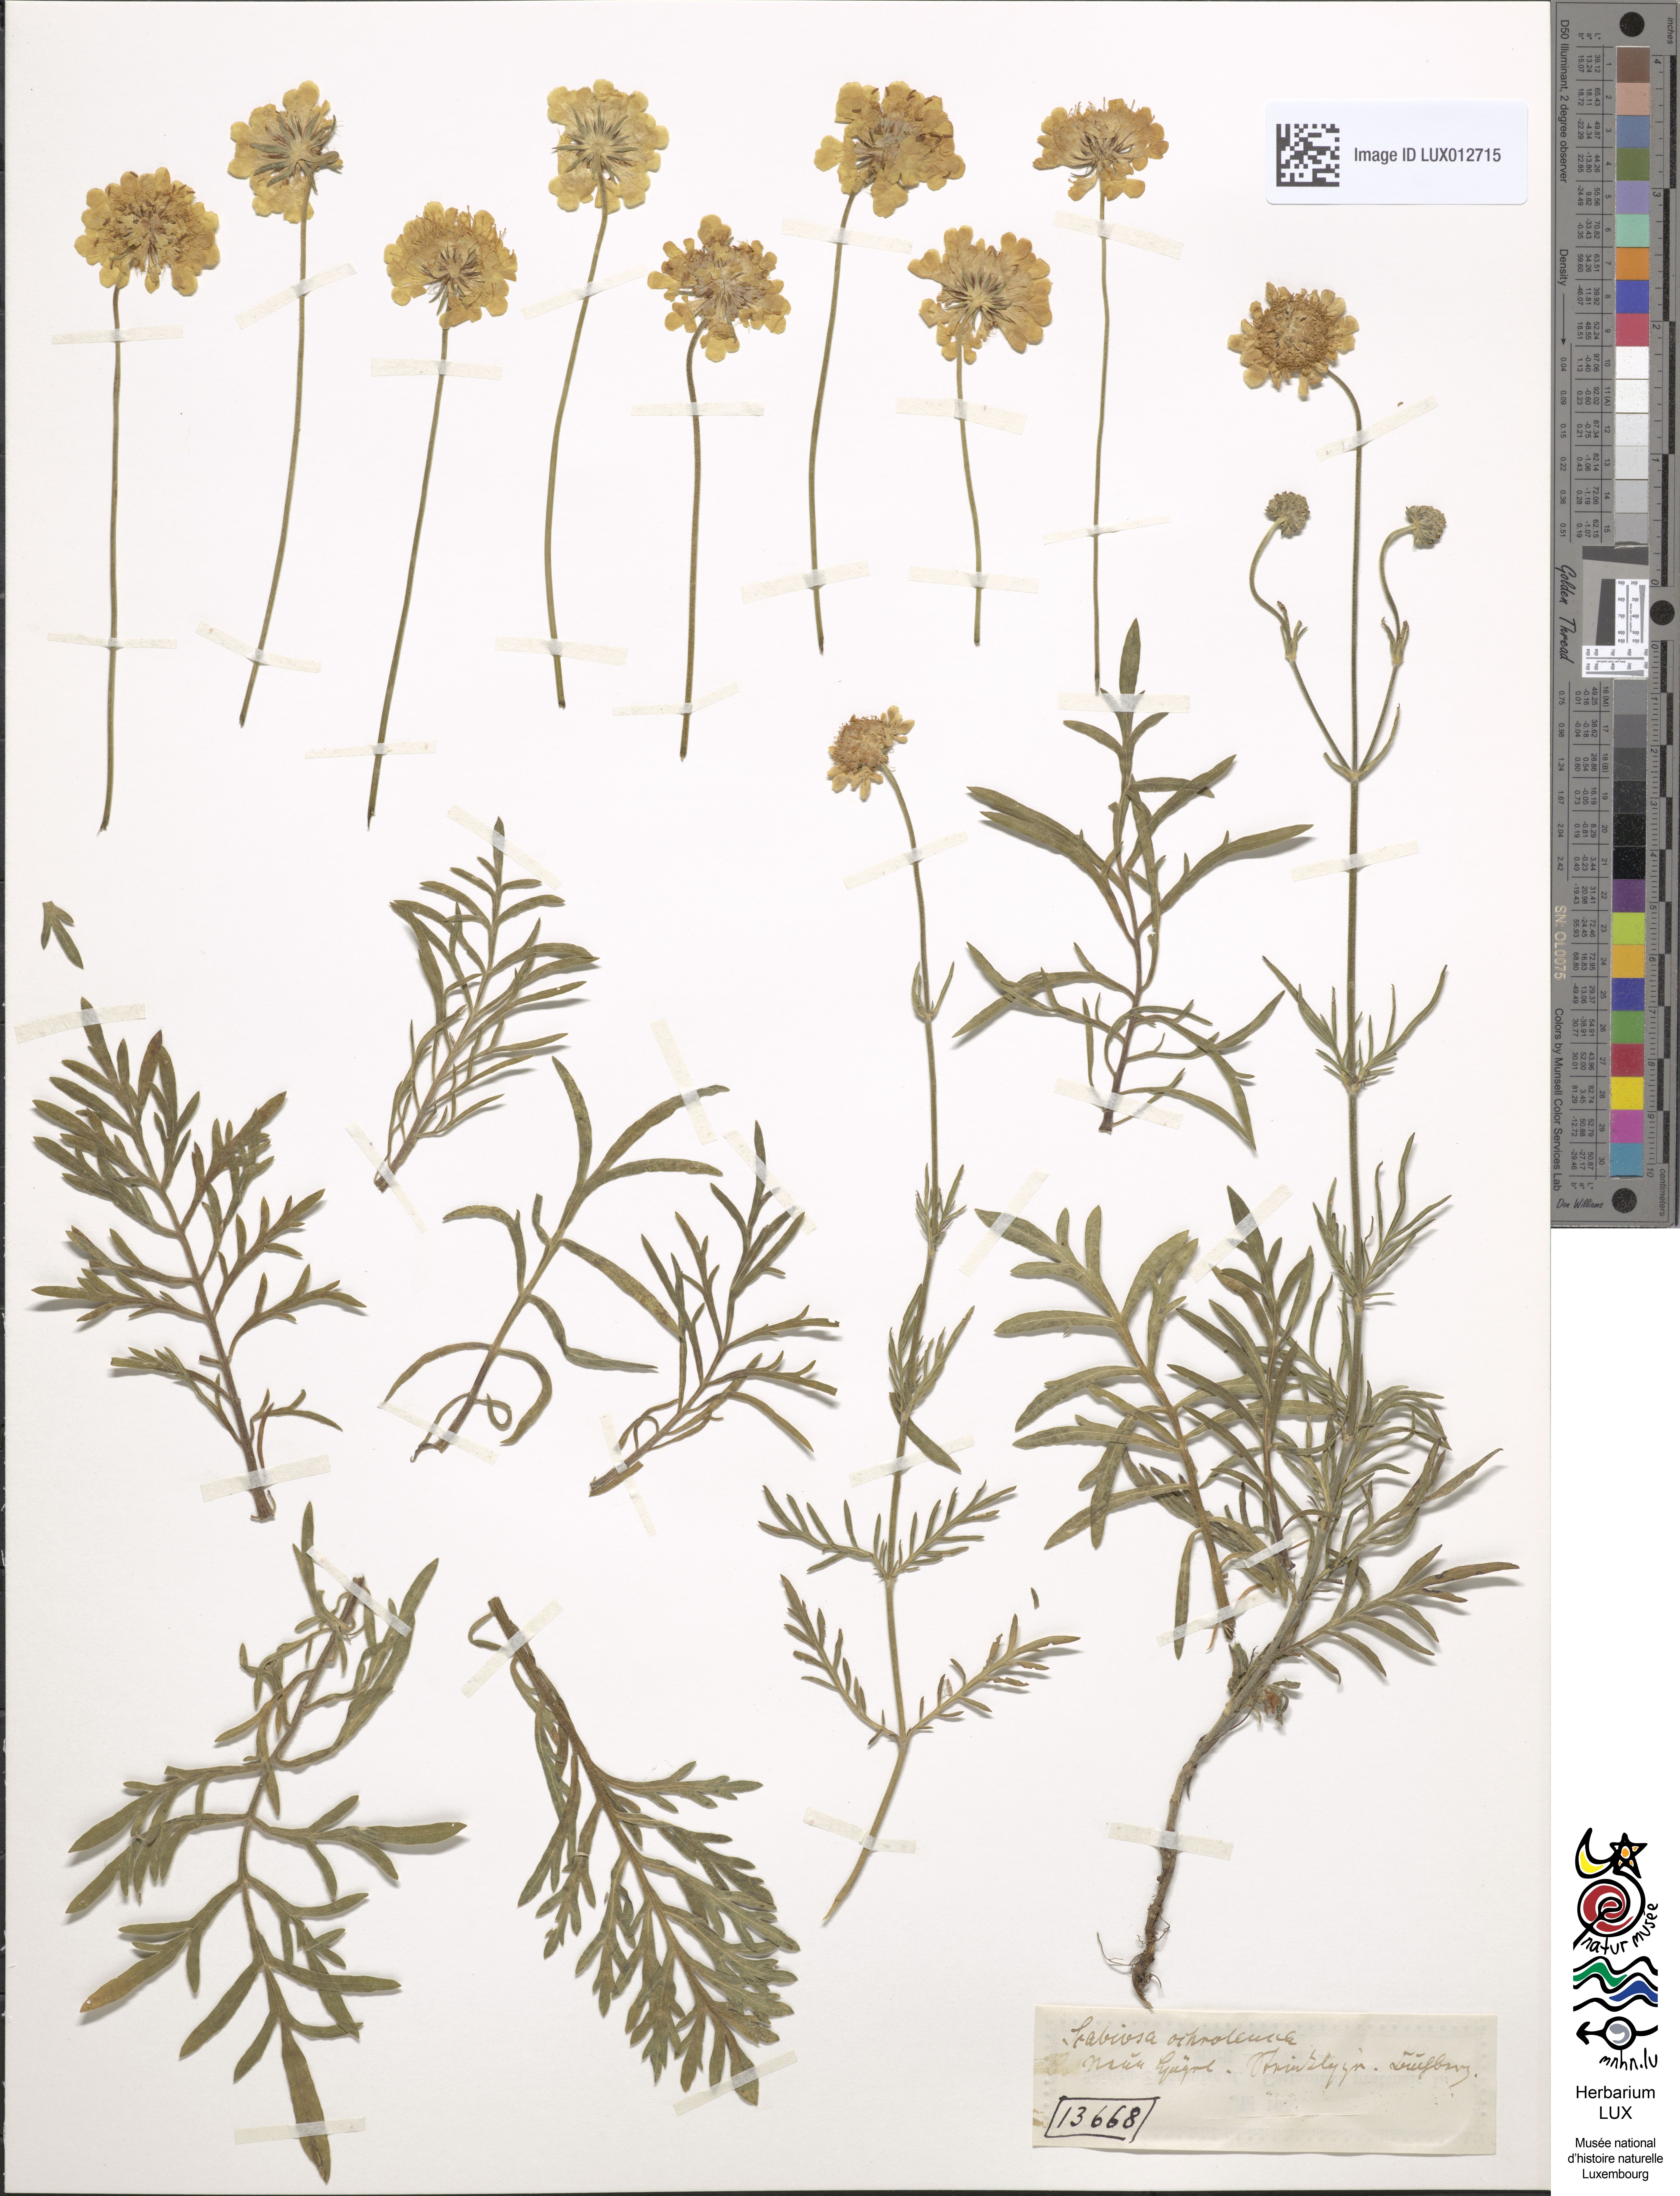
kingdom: Plantae
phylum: Tracheophyta
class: Magnoliopsida
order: Dipsacales
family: Caprifoliaceae
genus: Scabiosa
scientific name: Scabiosa ochroleuca
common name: Cream pincushions
